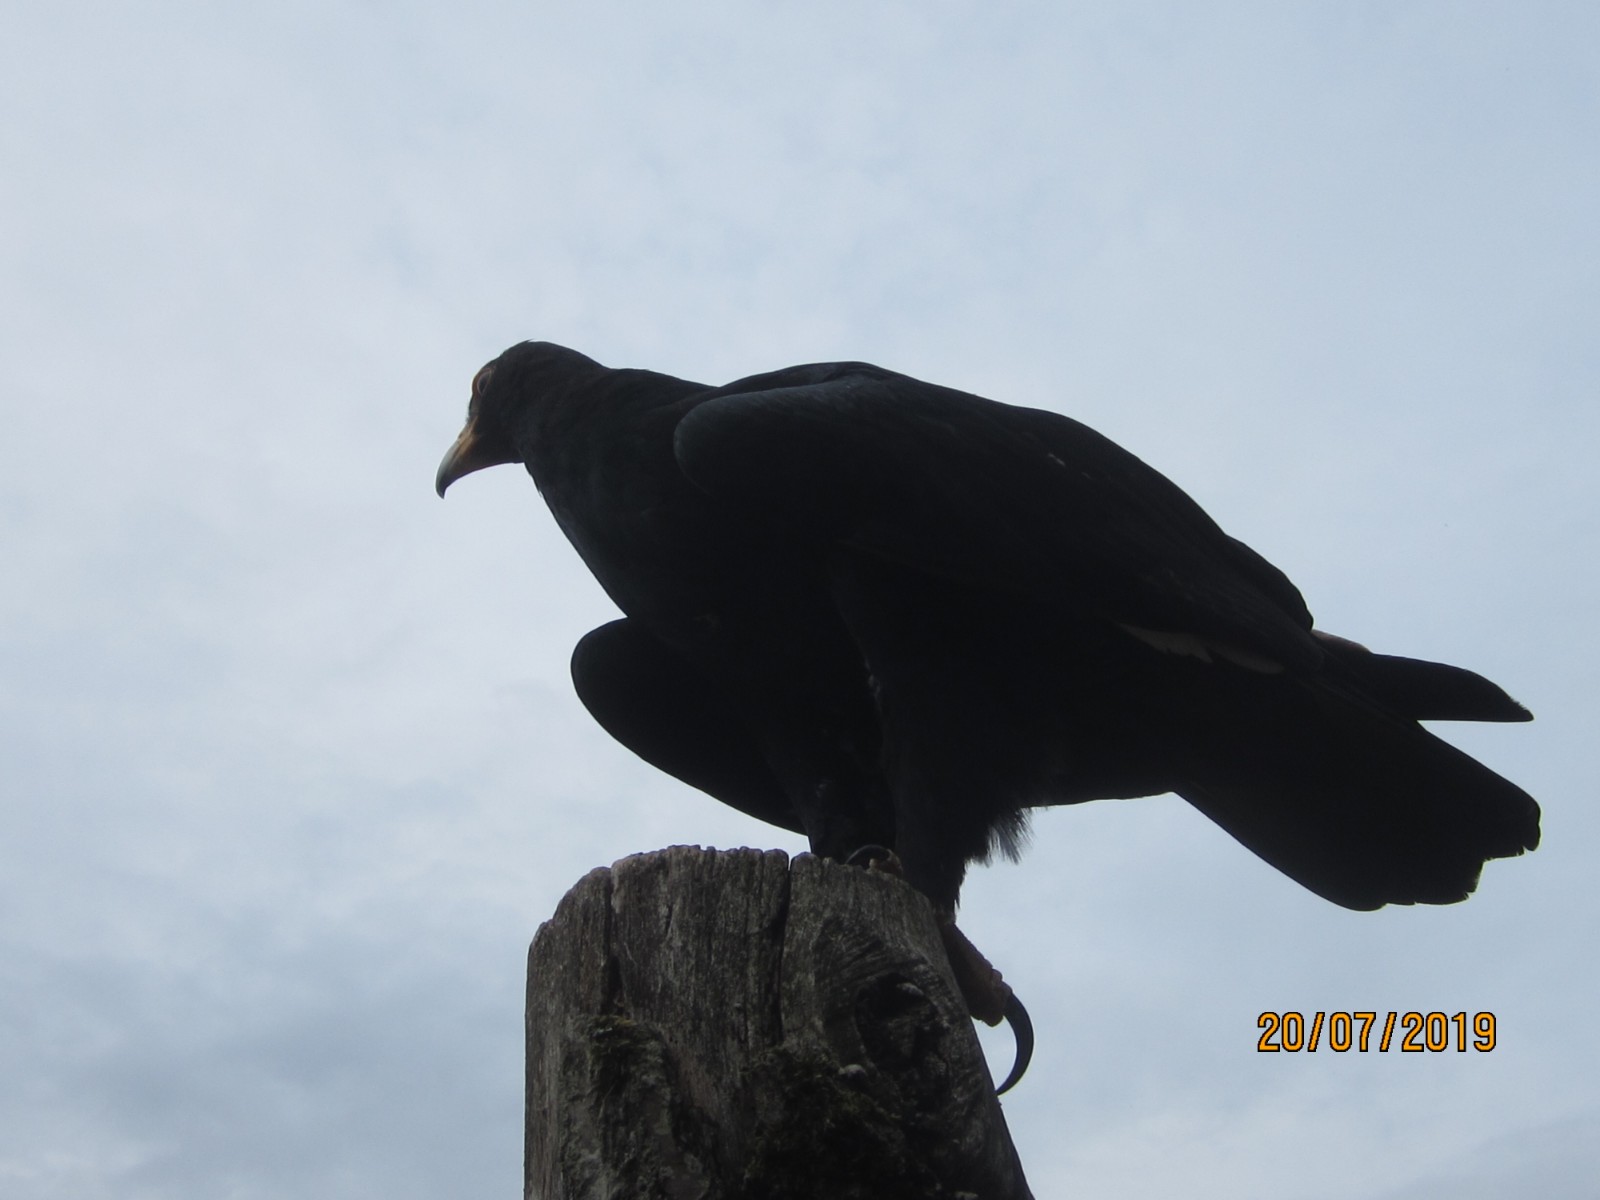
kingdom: Fungi
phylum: Basidiomycota
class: Agaricomycetes
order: Russulales
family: Stereaceae
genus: Stereum
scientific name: Stereum subtomentosum
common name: smuk lædersvamp
